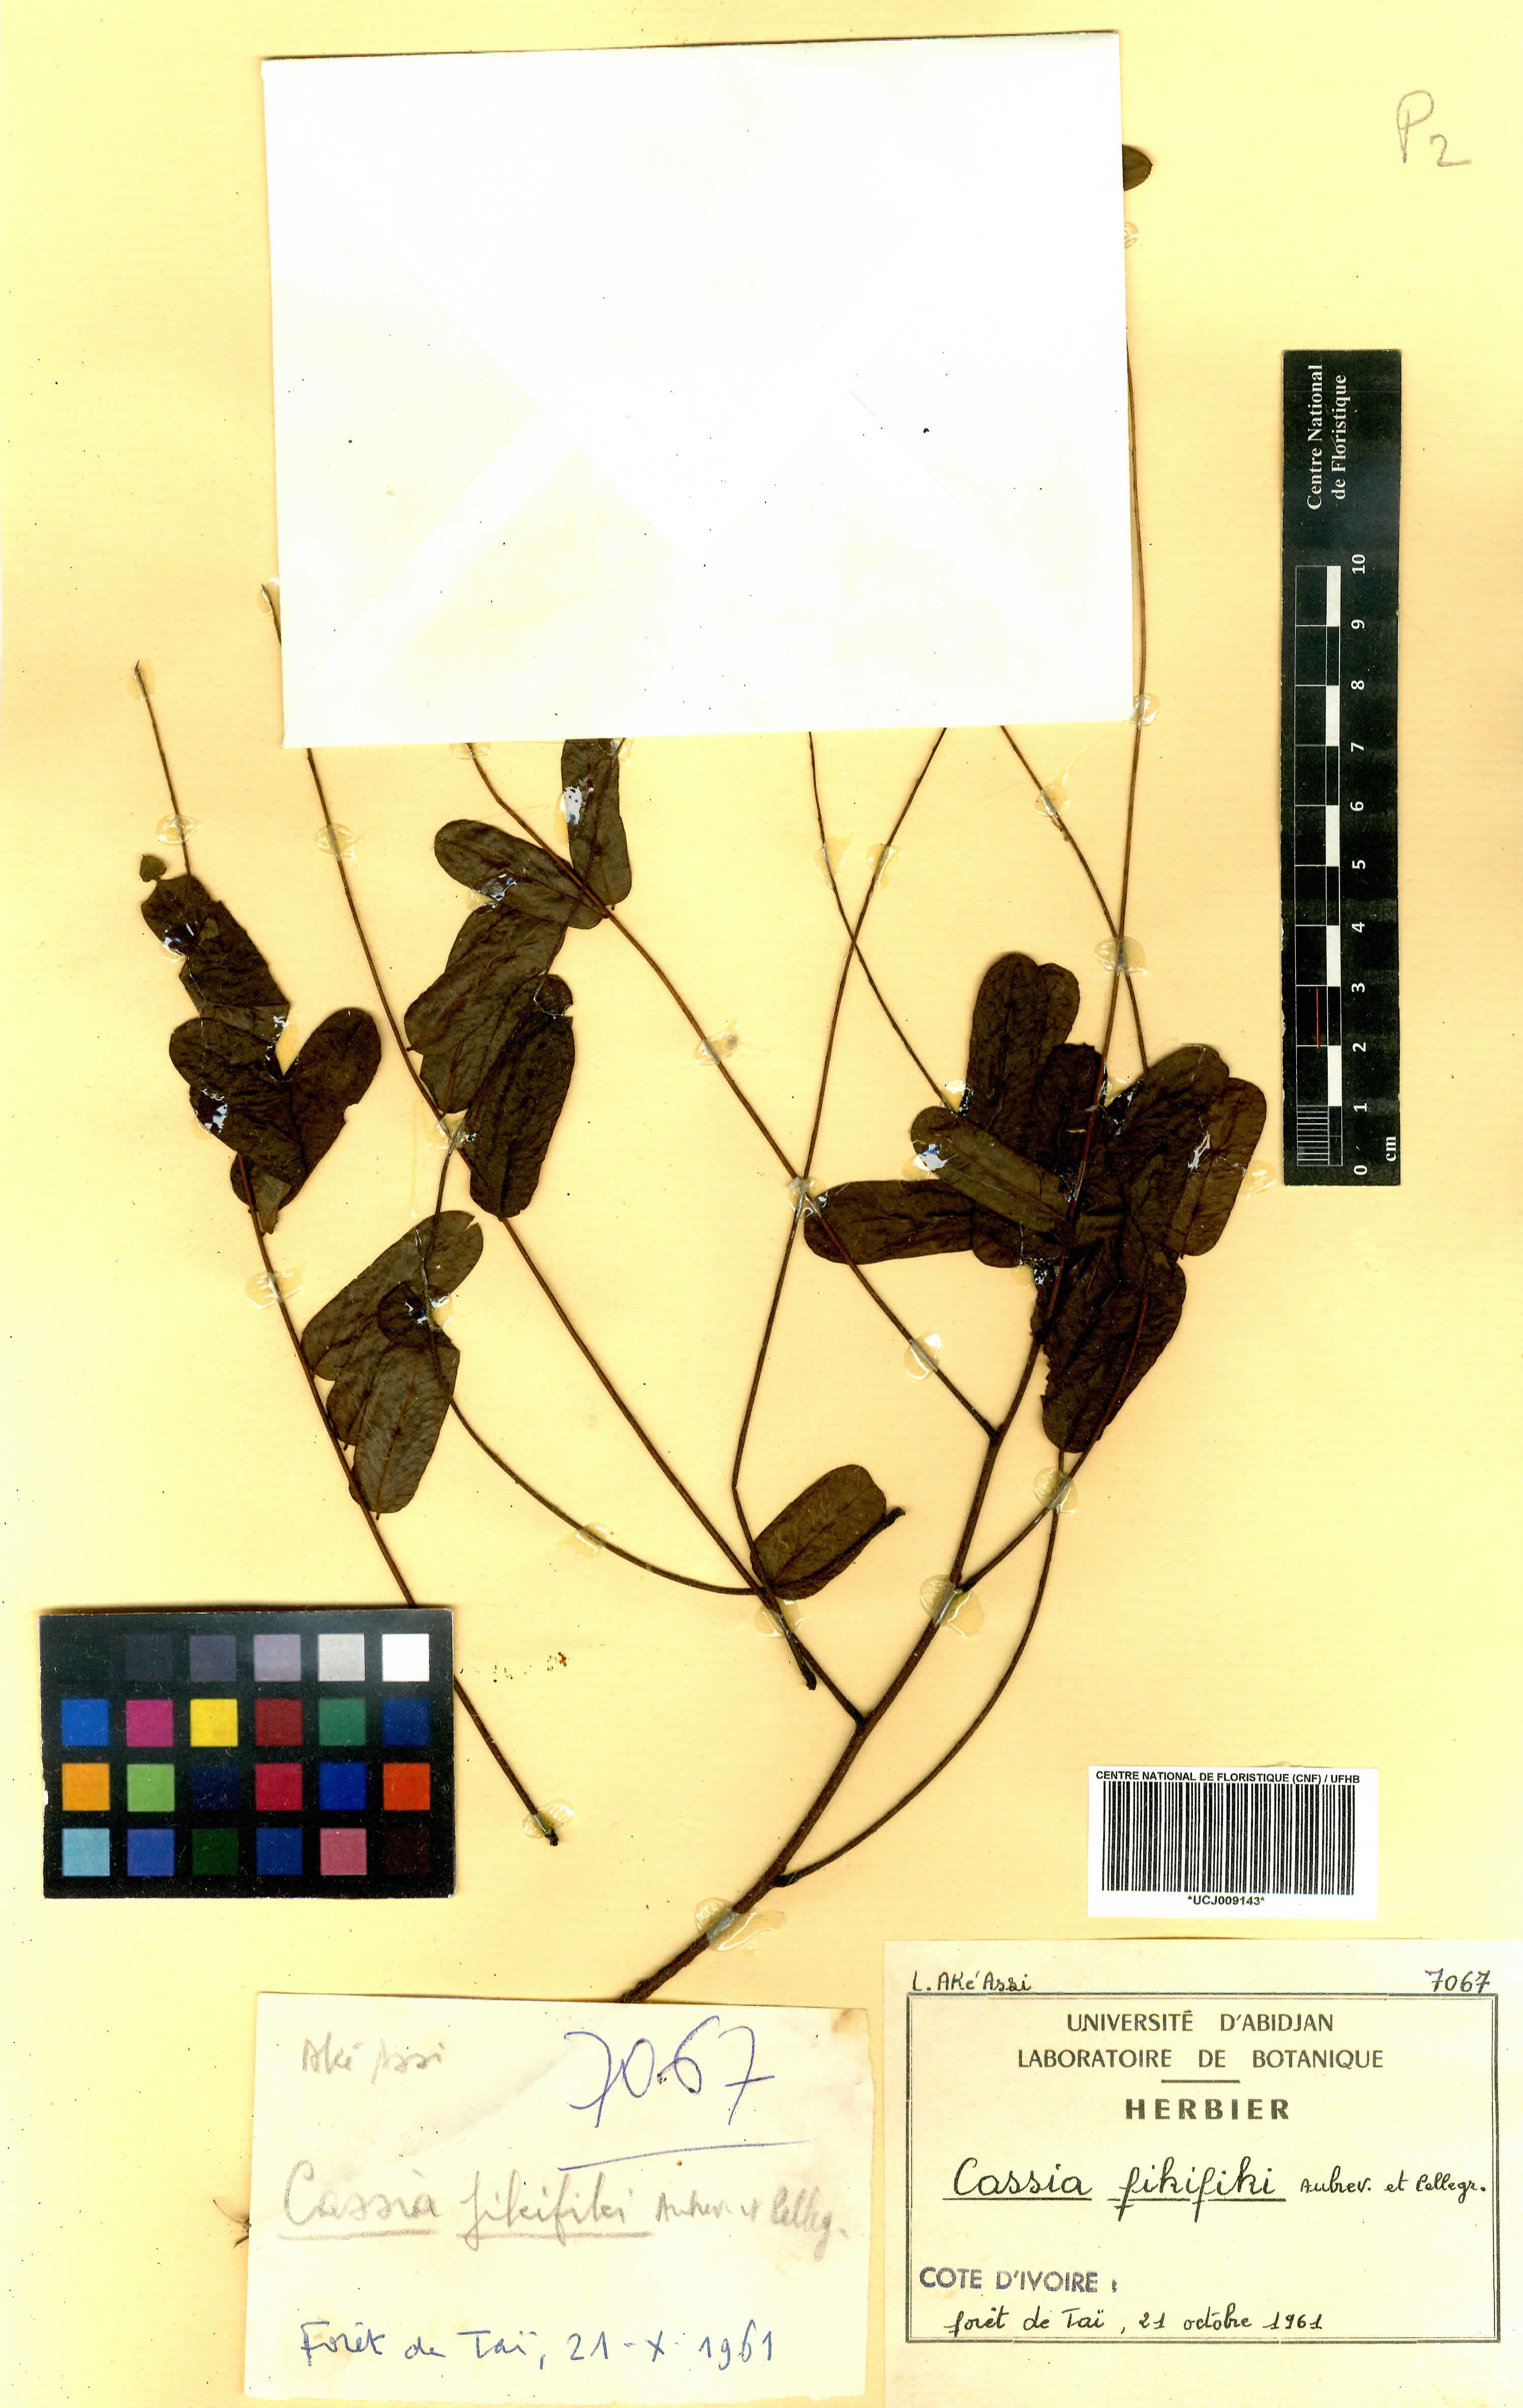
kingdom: Plantae
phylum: Tracheophyta
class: Magnoliopsida
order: Fabales
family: Fabaceae
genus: Cassia
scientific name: Cassia fikifiki
